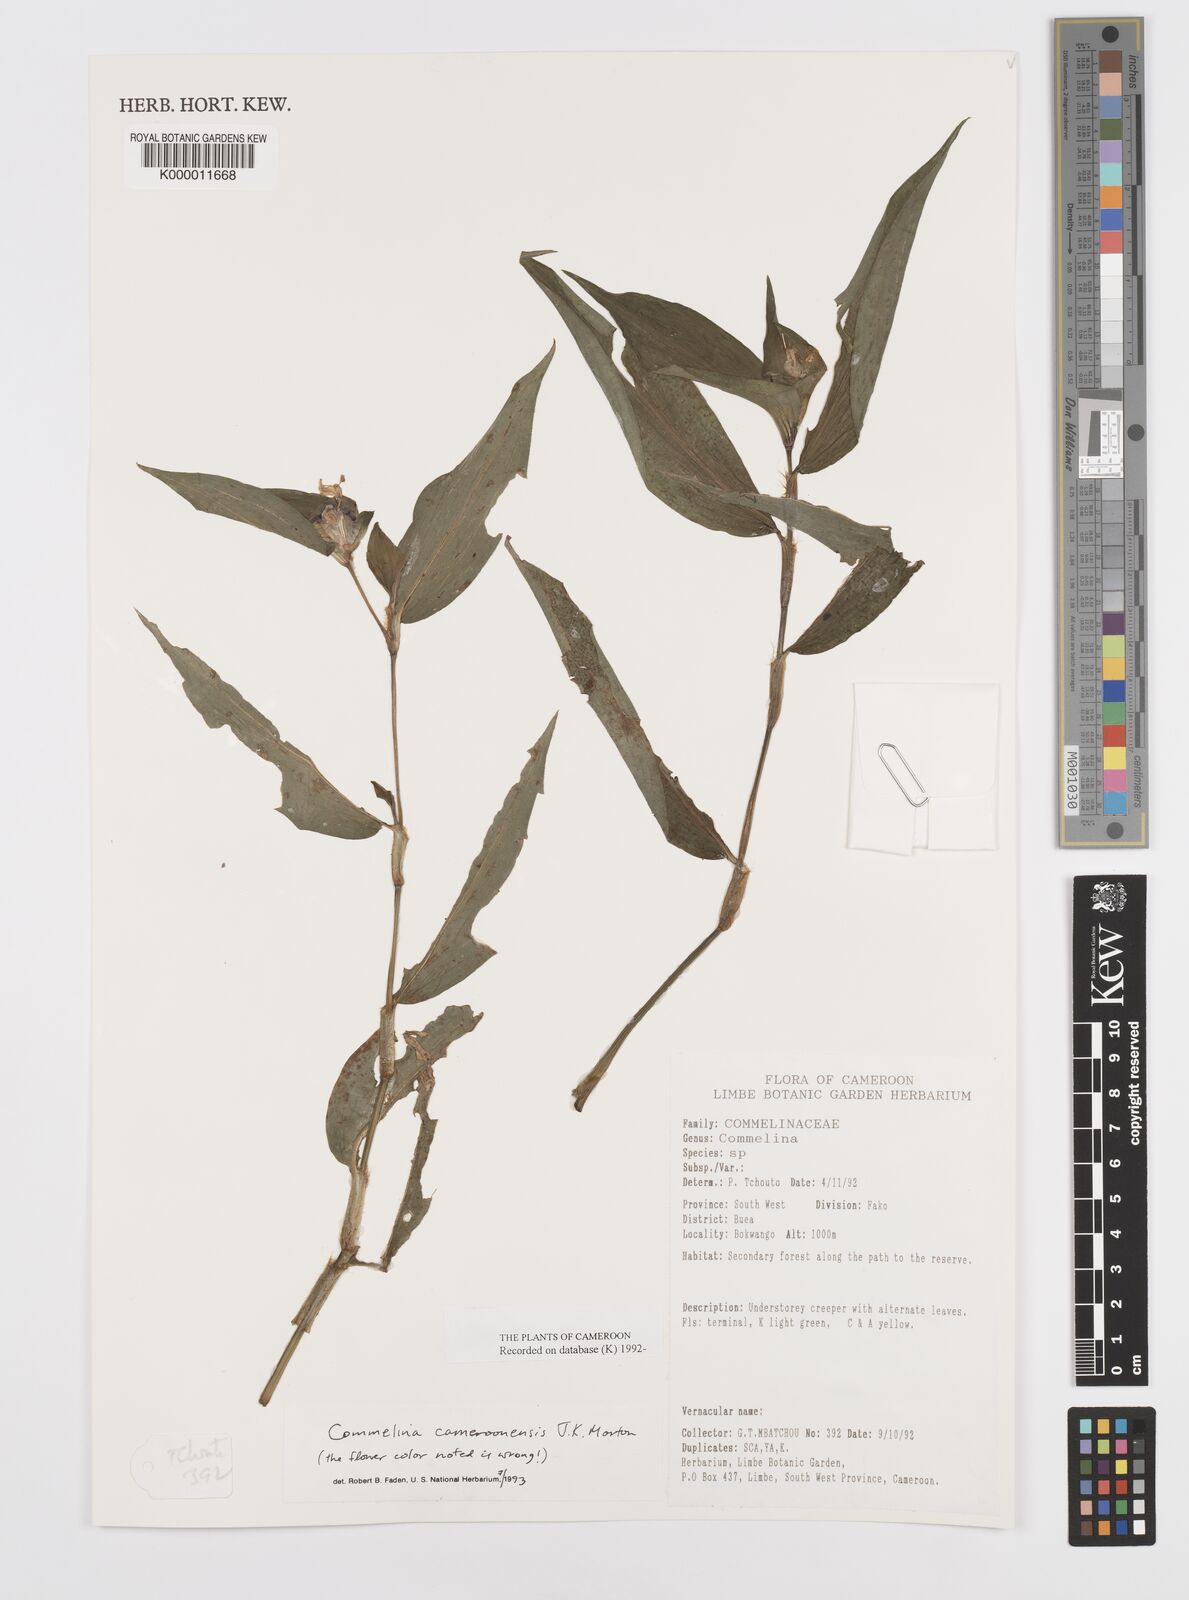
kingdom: Plantae
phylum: Tracheophyta
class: Liliopsida
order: Commelinales
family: Commelinaceae
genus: Commelina
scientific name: Commelina cameroonensis
